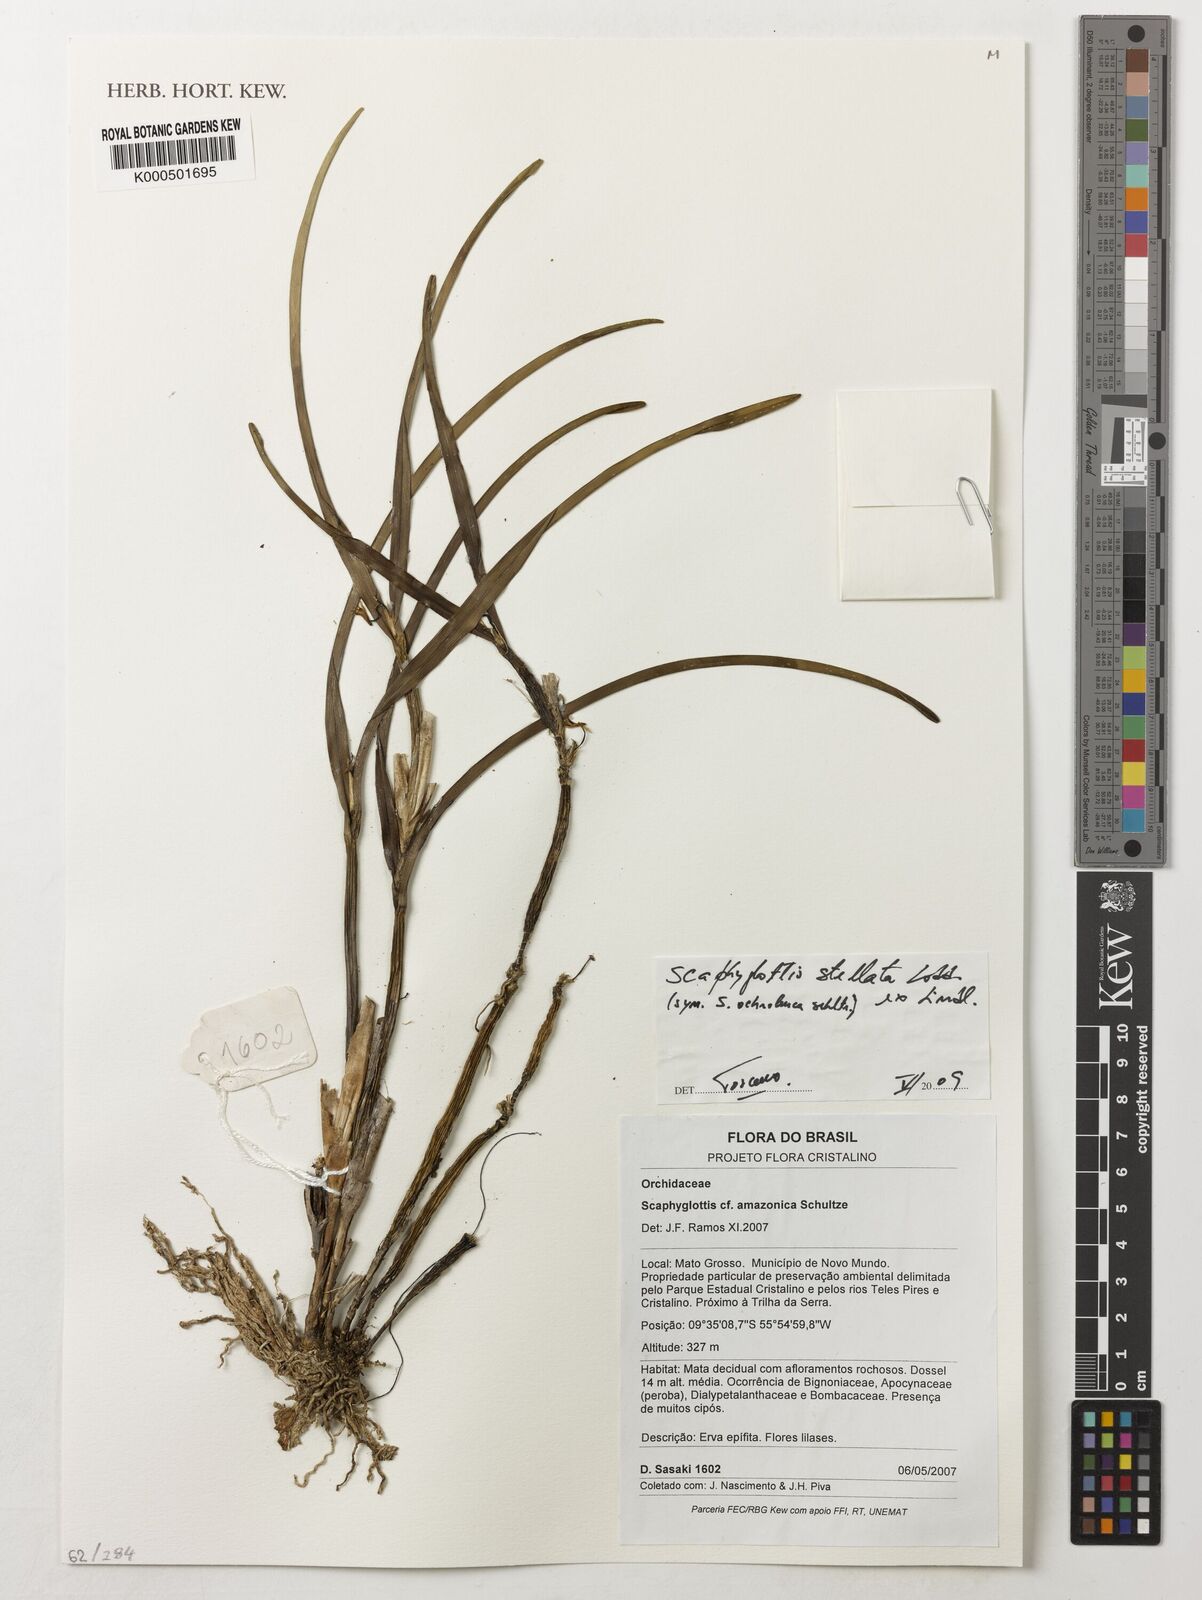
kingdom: Plantae
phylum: Tracheophyta
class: Liliopsida
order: Asparagales
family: Orchidaceae
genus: Scaphyglottis
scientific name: Scaphyglottis stellata
